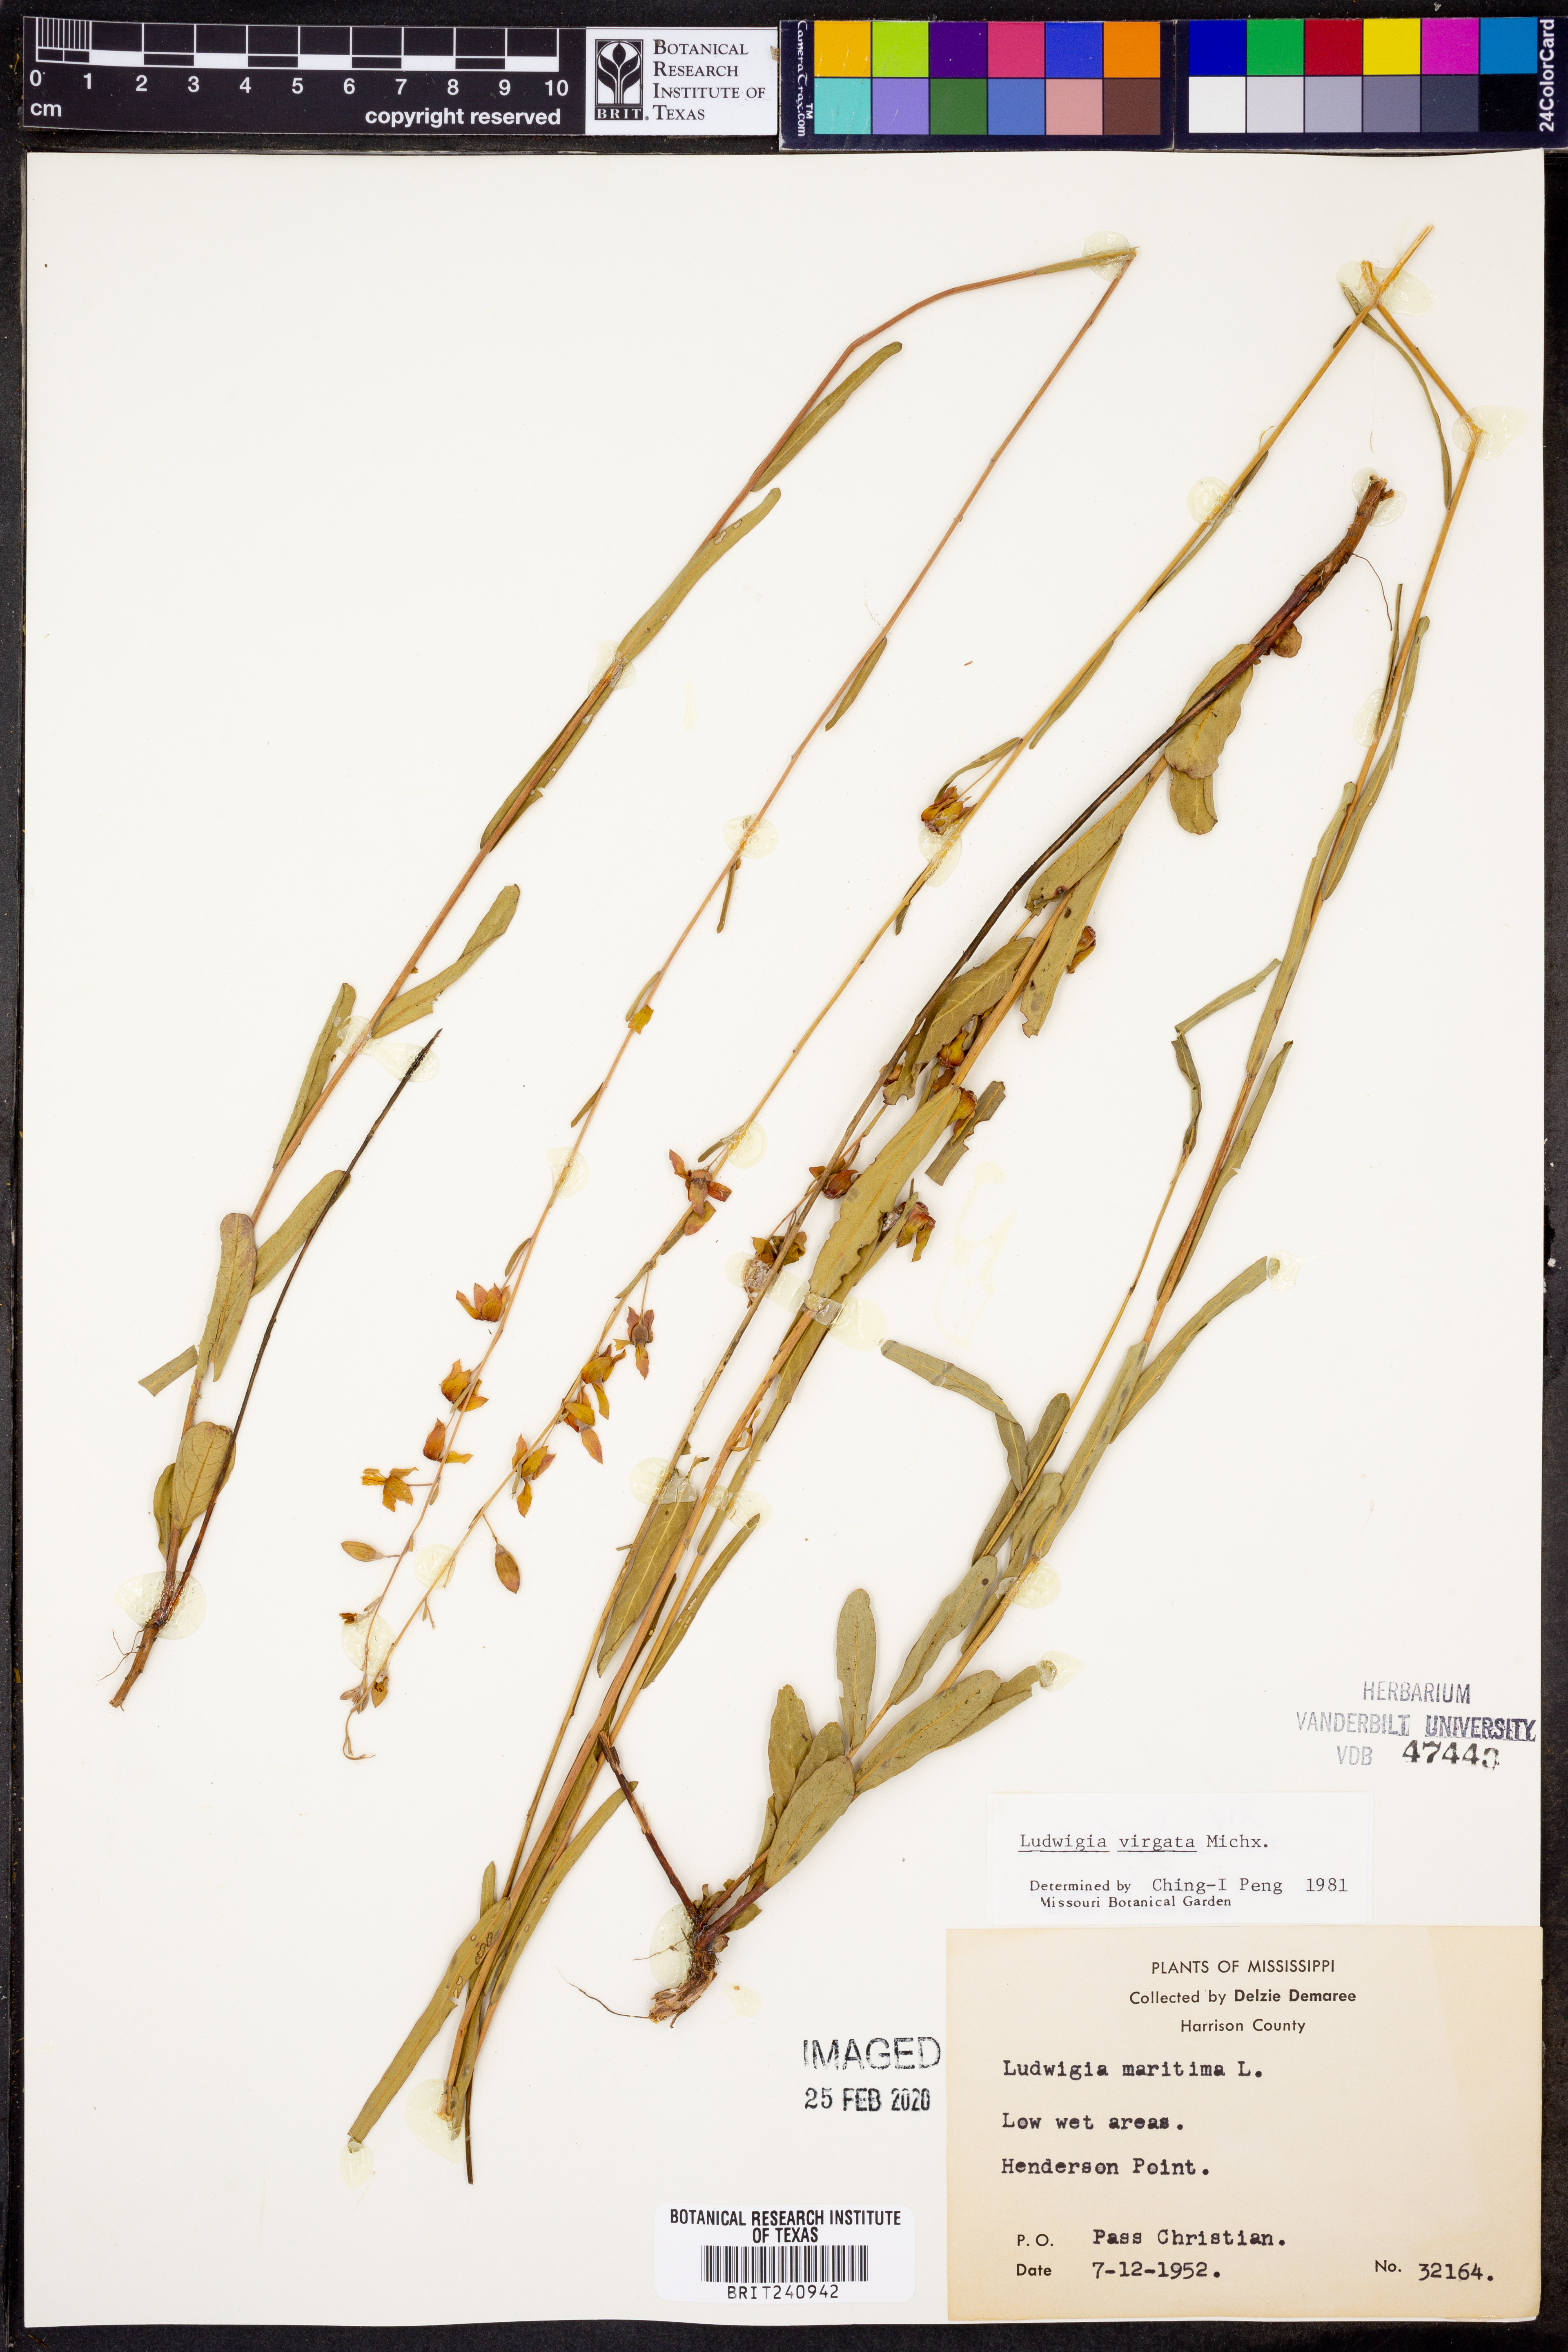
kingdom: Plantae
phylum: Tracheophyta
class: Magnoliopsida
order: Myrtales
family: Onagraceae
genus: Ludwigia
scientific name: Ludwigia virgata
